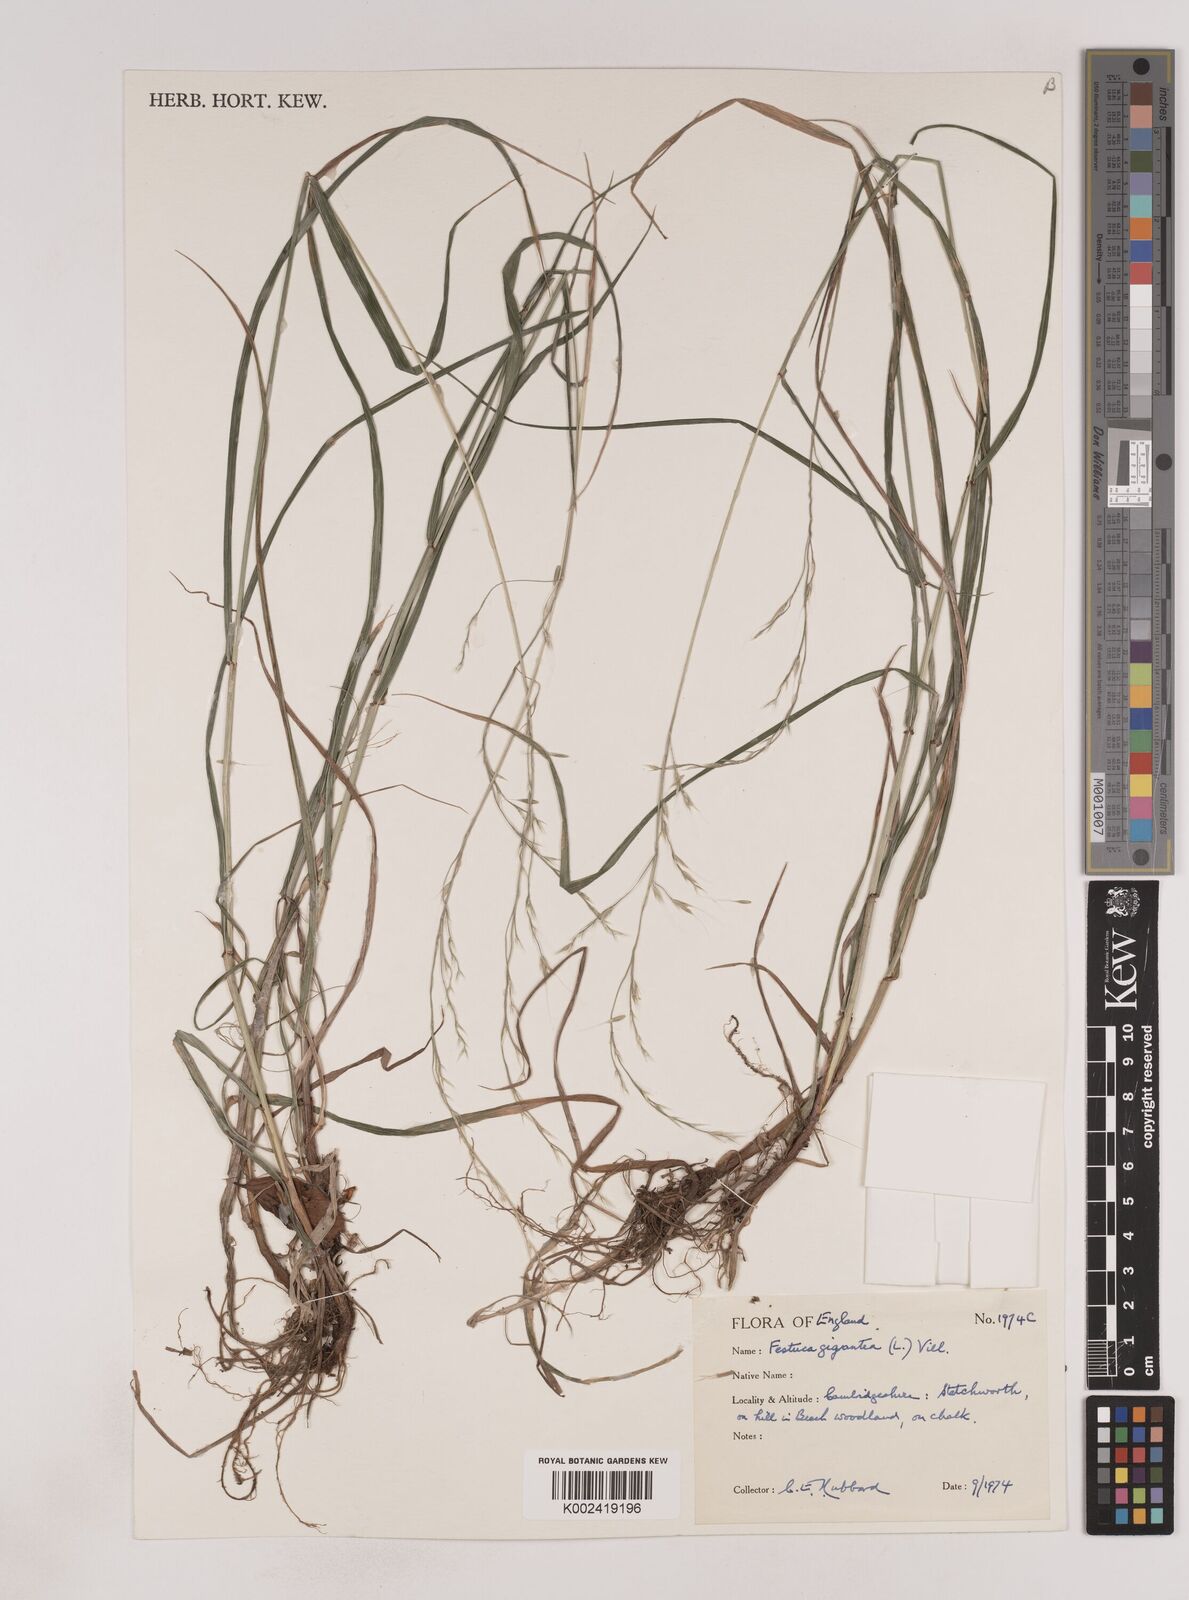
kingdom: Plantae
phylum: Tracheophyta
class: Liliopsida
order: Poales
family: Poaceae
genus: Lolium
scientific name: Lolium giganteum
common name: Giant fescue
